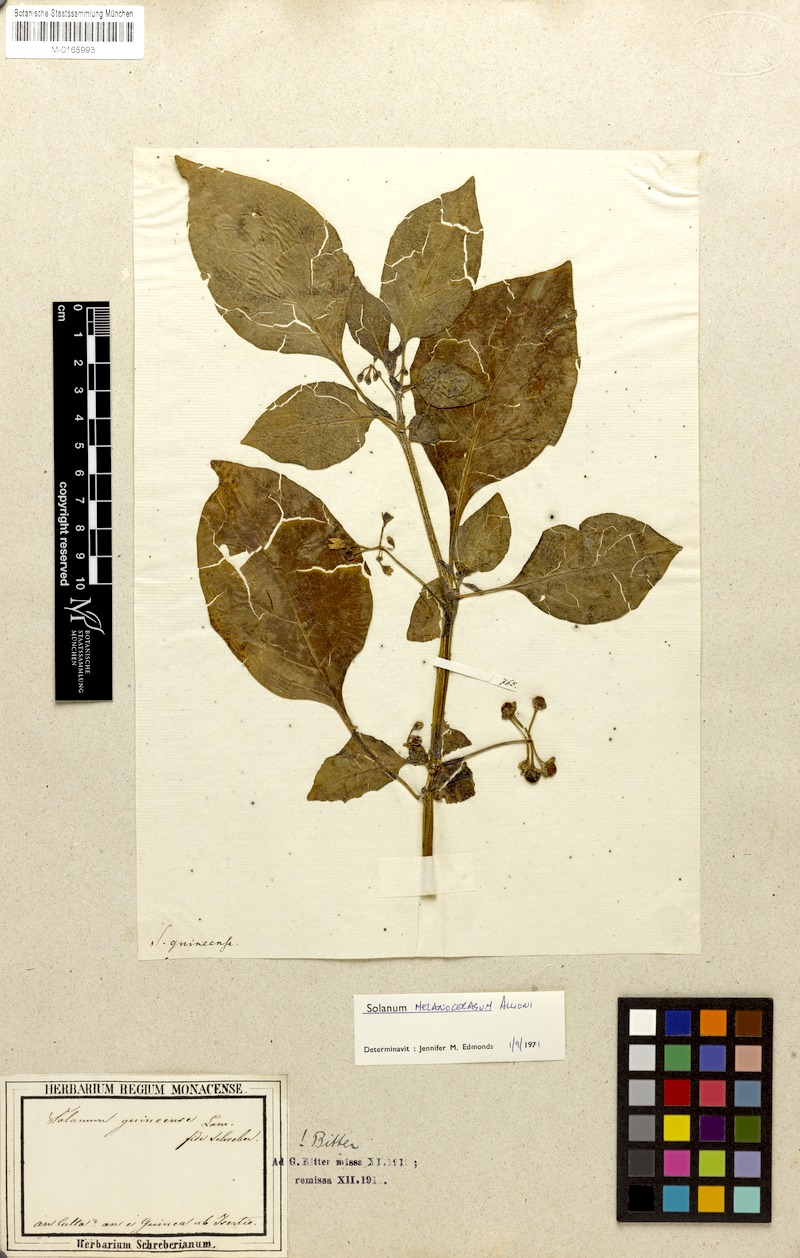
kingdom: Plantae
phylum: Tracheophyta
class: Magnoliopsida
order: Solanales
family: Solanaceae
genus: Solanum
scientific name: Solanum scabrum
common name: Garden-huckleberry
